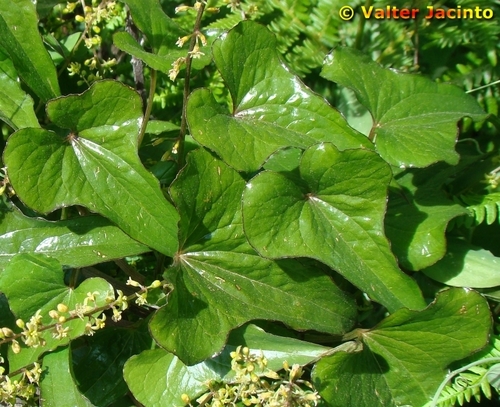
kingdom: Plantae
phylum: Tracheophyta
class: Liliopsida
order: Dioscoreales
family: Dioscoreaceae
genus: Dioscorea
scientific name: Dioscorea communis
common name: Black-bindweed
